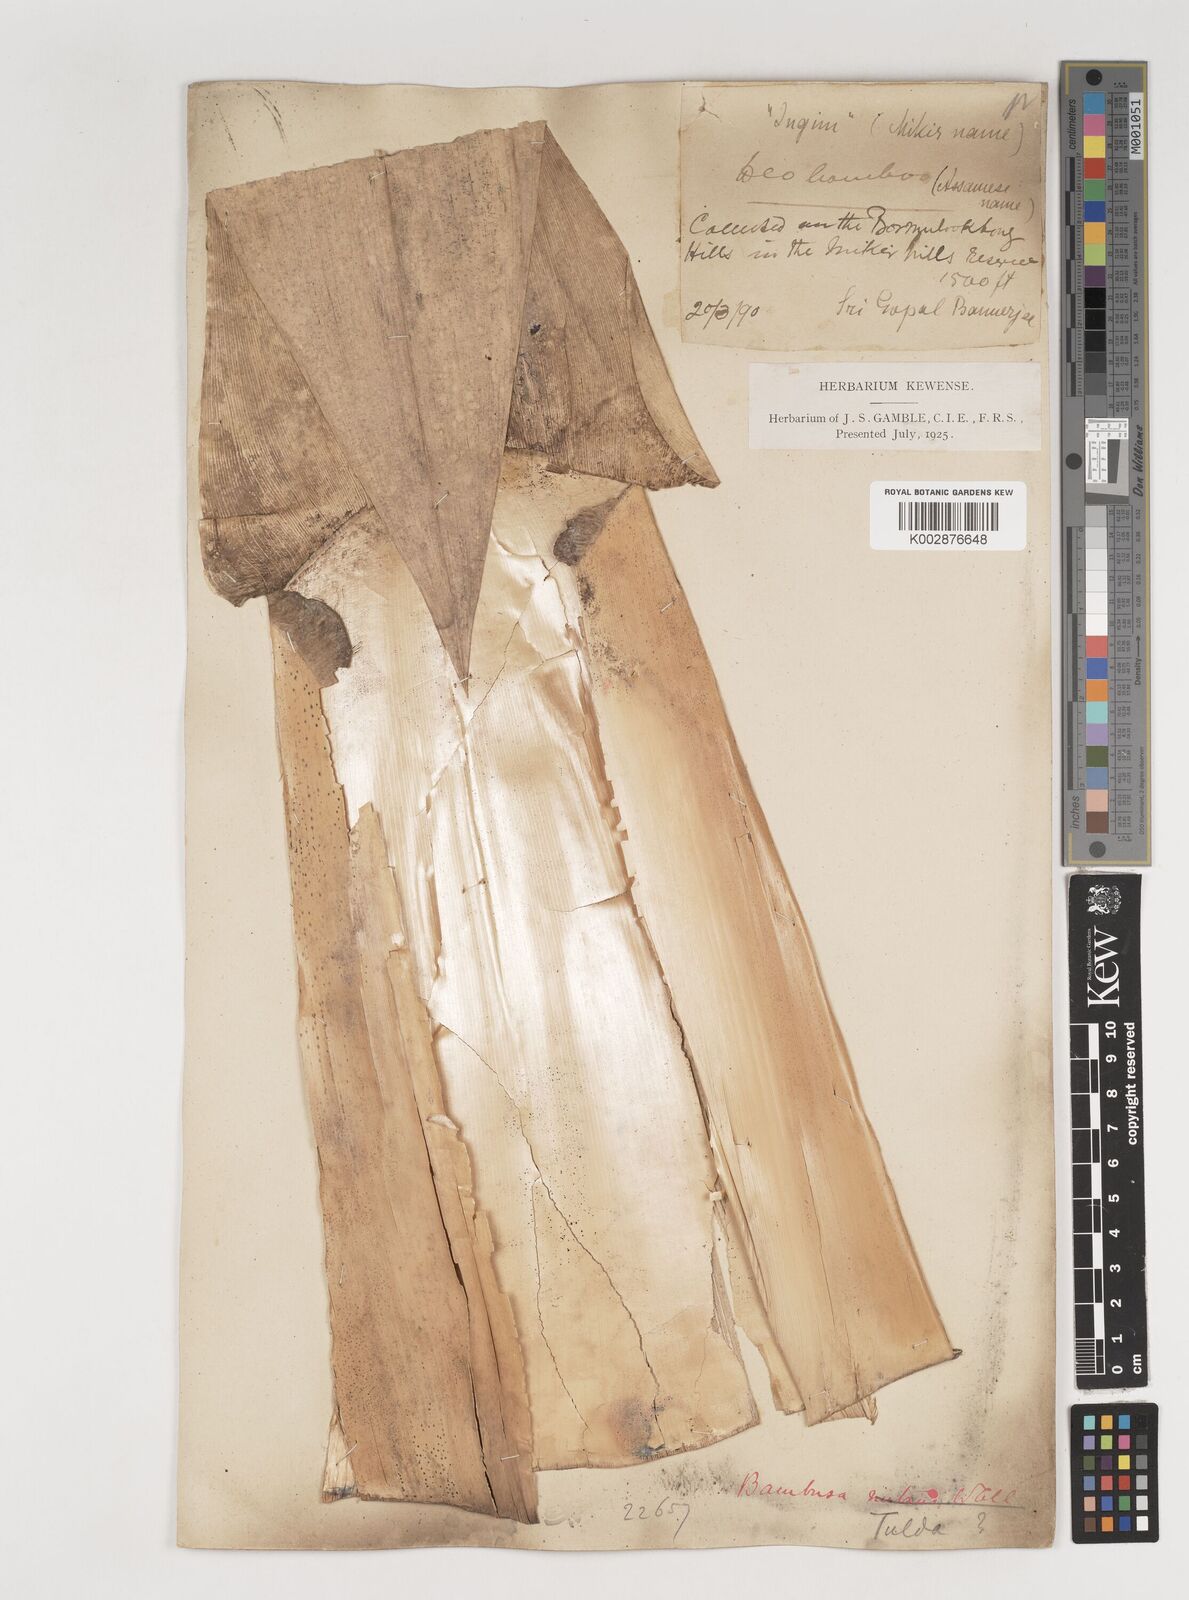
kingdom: Plantae
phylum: Tracheophyta
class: Liliopsida
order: Poales
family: Poaceae
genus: Bambusa
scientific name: Bambusa nutans
